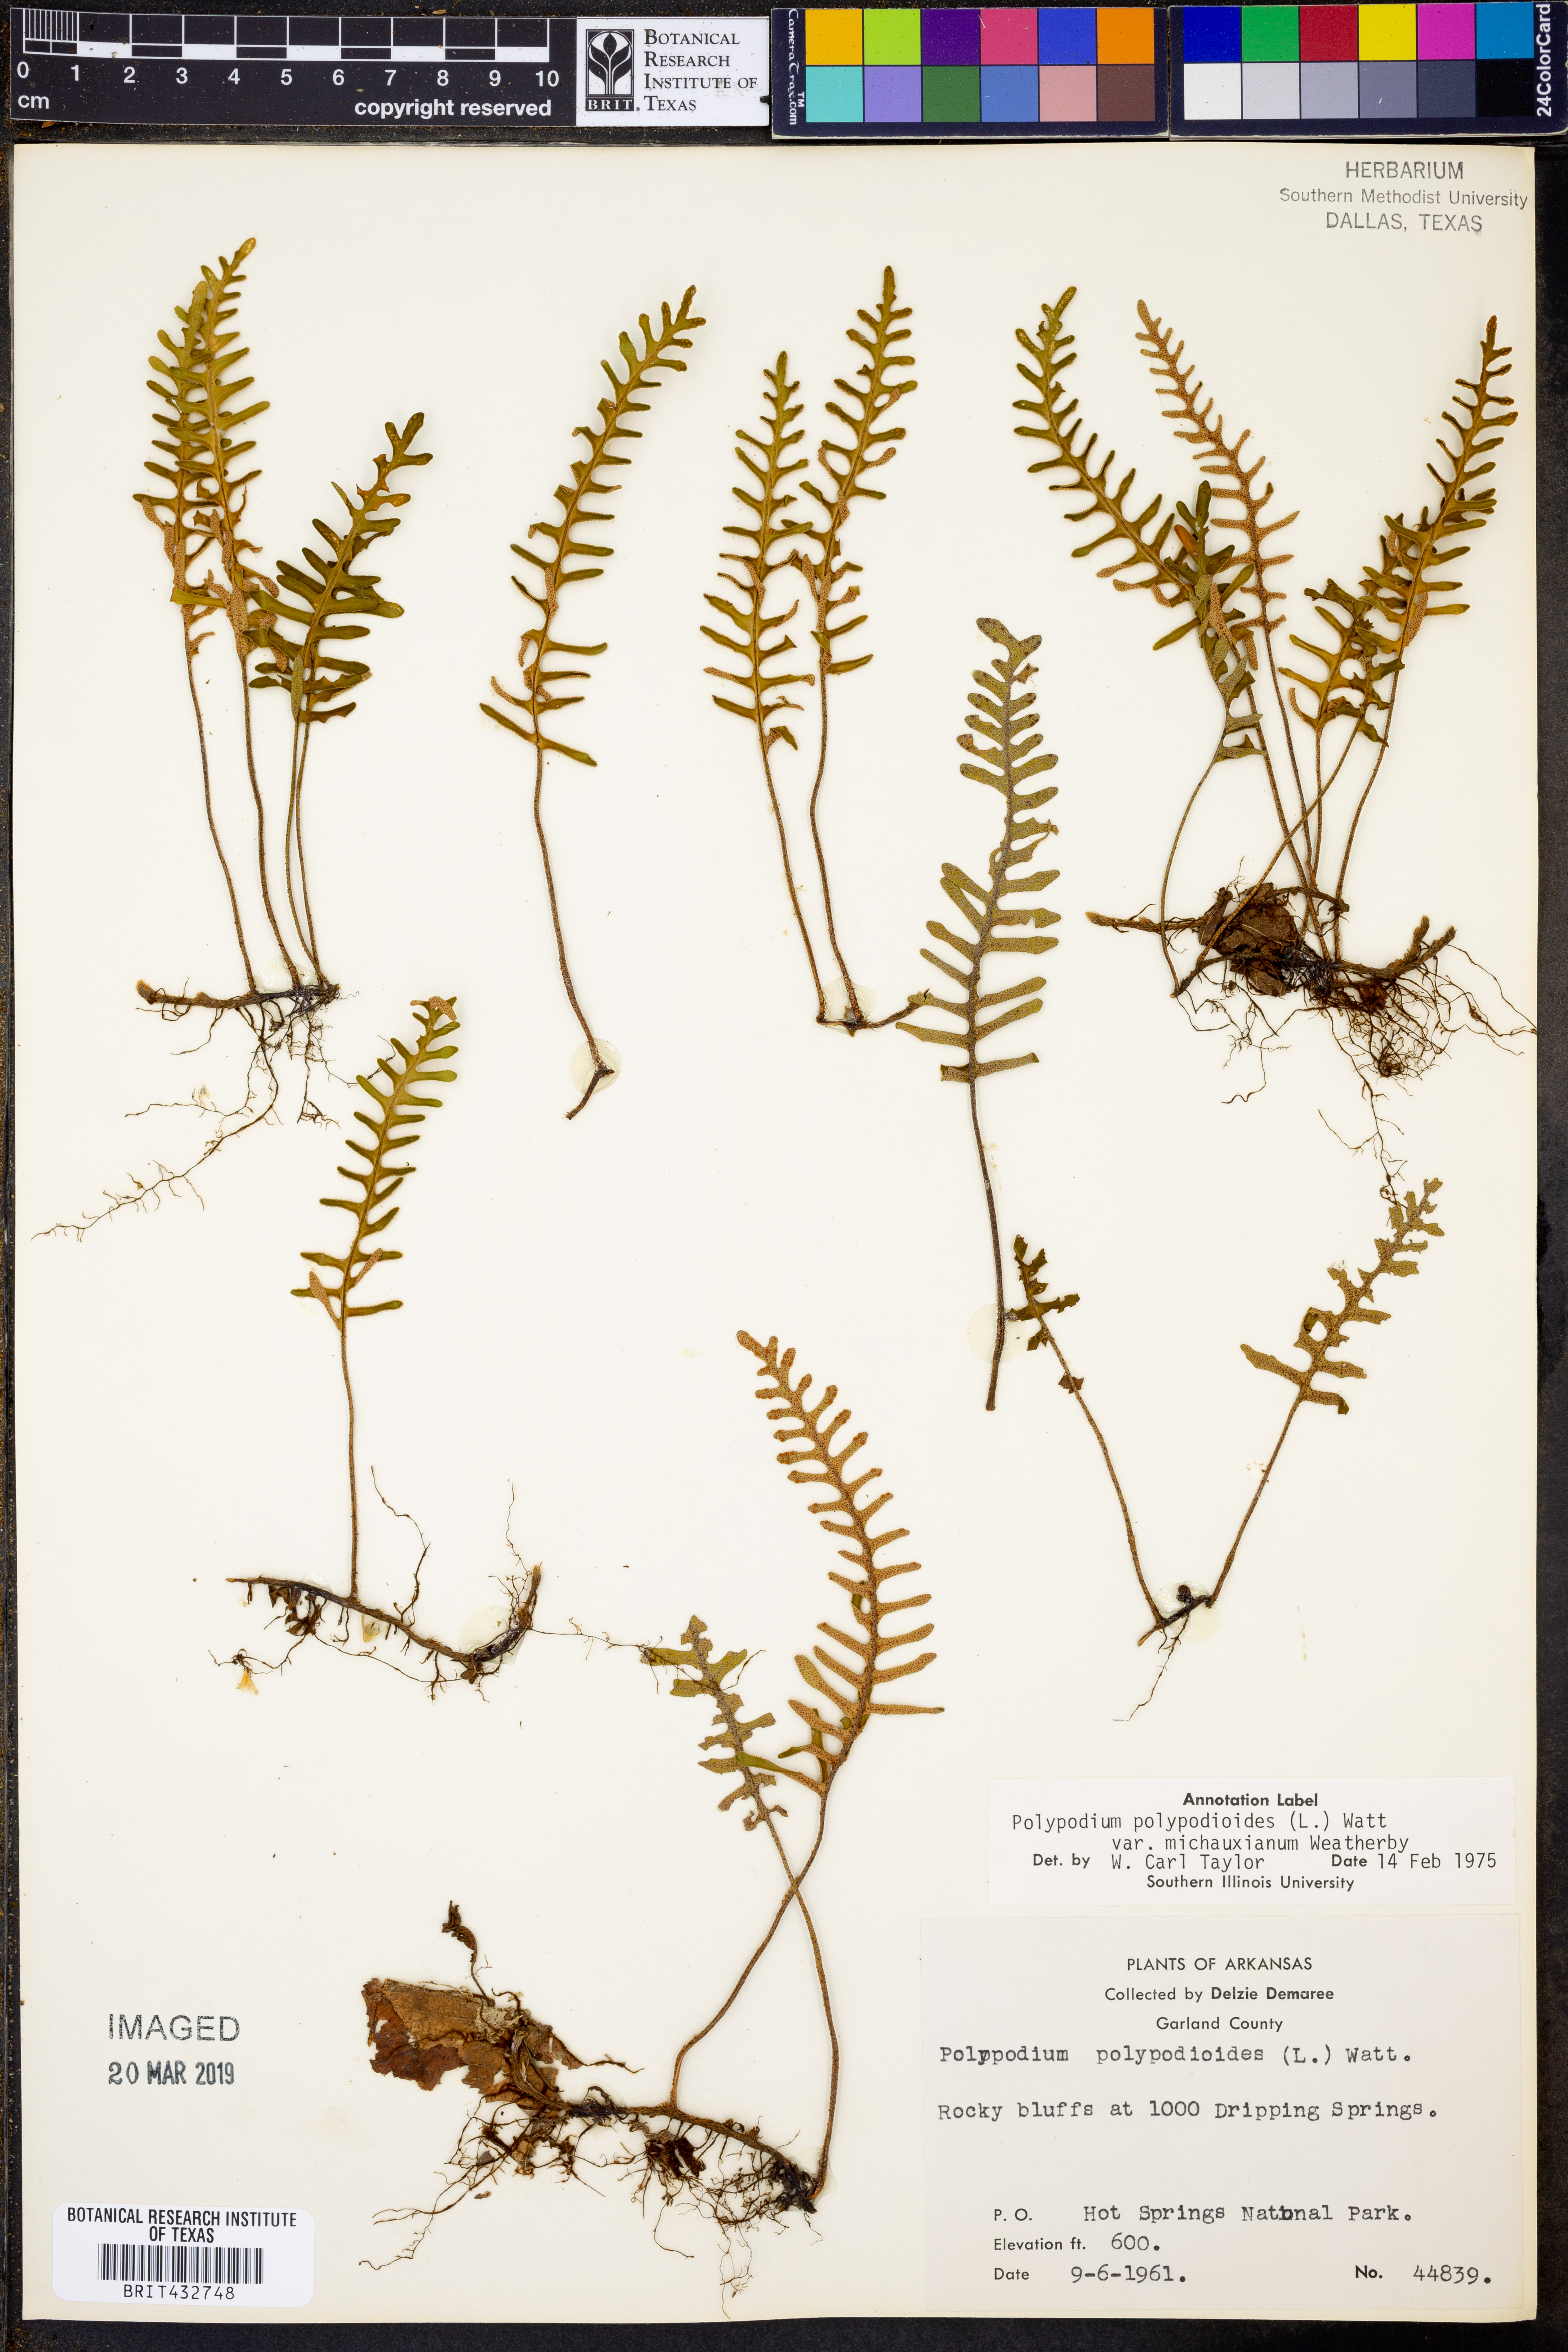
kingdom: Plantae
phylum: Tracheophyta
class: Polypodiopsida
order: Polypodiales
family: Polypodiaceae
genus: Pleopeltis
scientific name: Pleopeltis michauxiana
